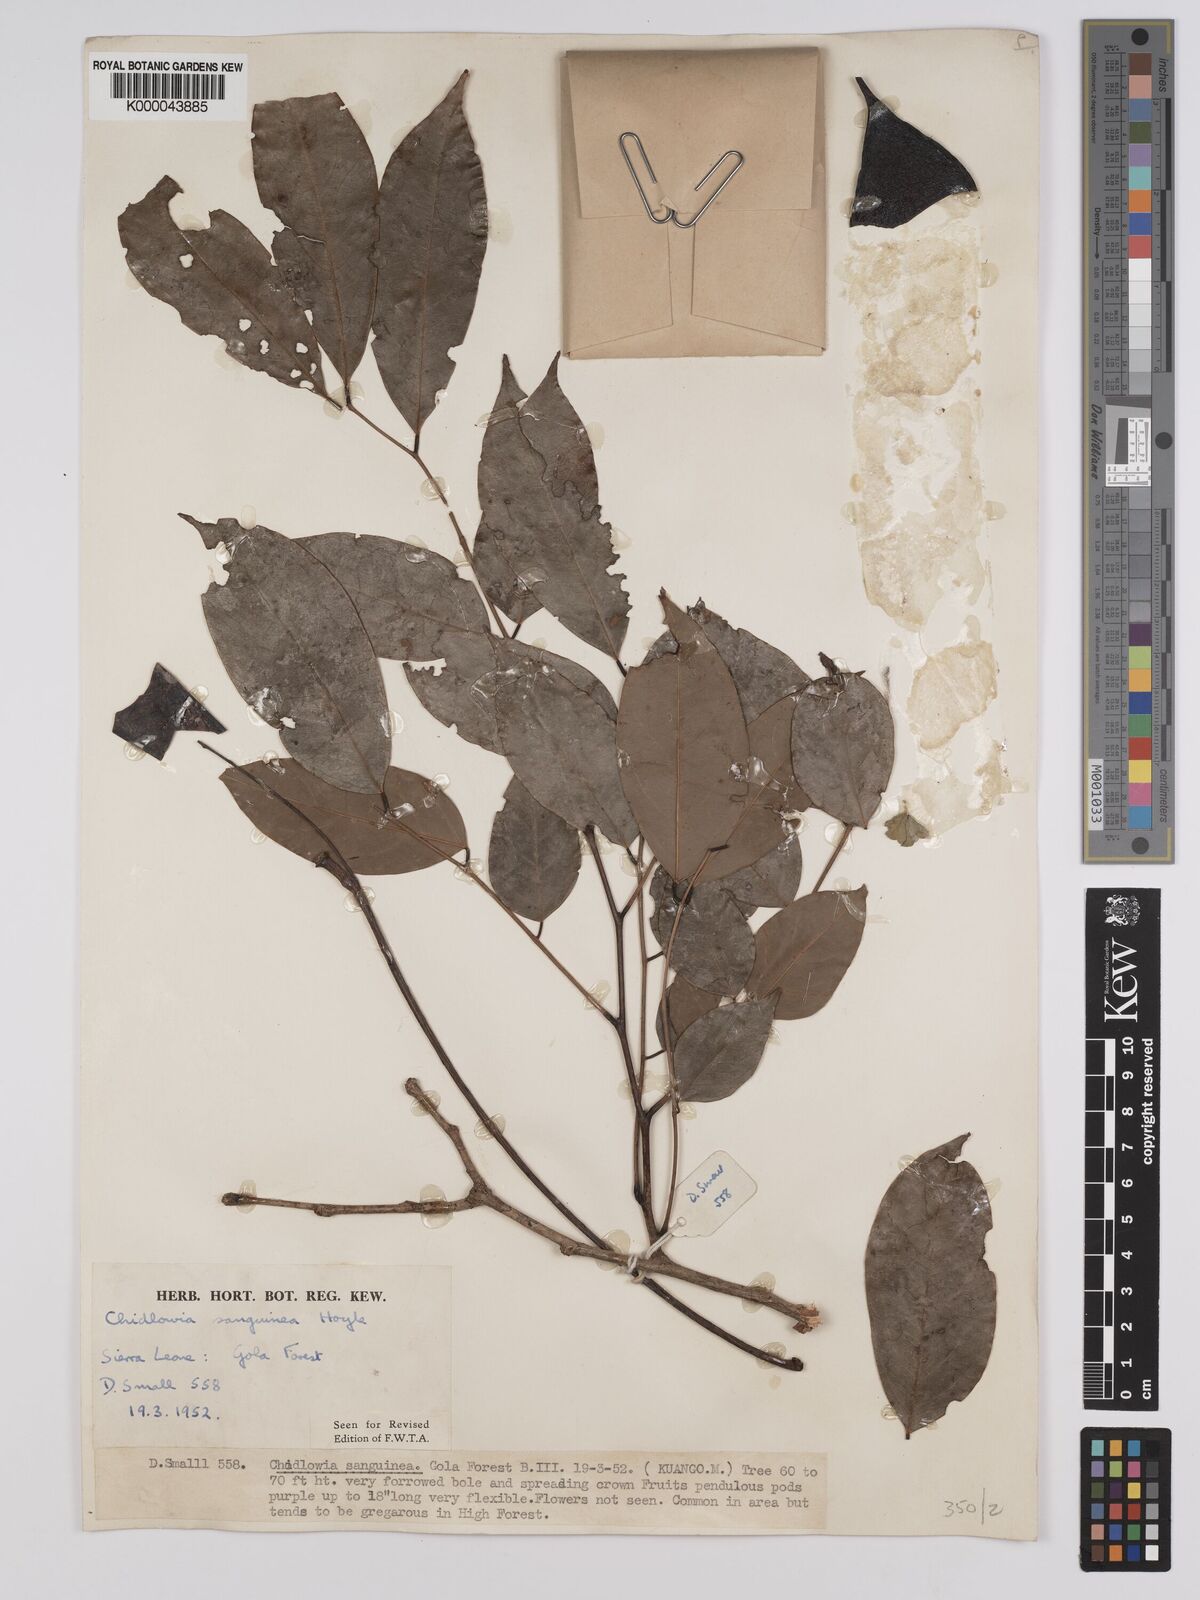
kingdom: Plantae
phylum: Tracheophyta
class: Magnoliopsida
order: Fabales
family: Fabaceae
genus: Chidlowia
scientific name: Chidlowia sanguinea
